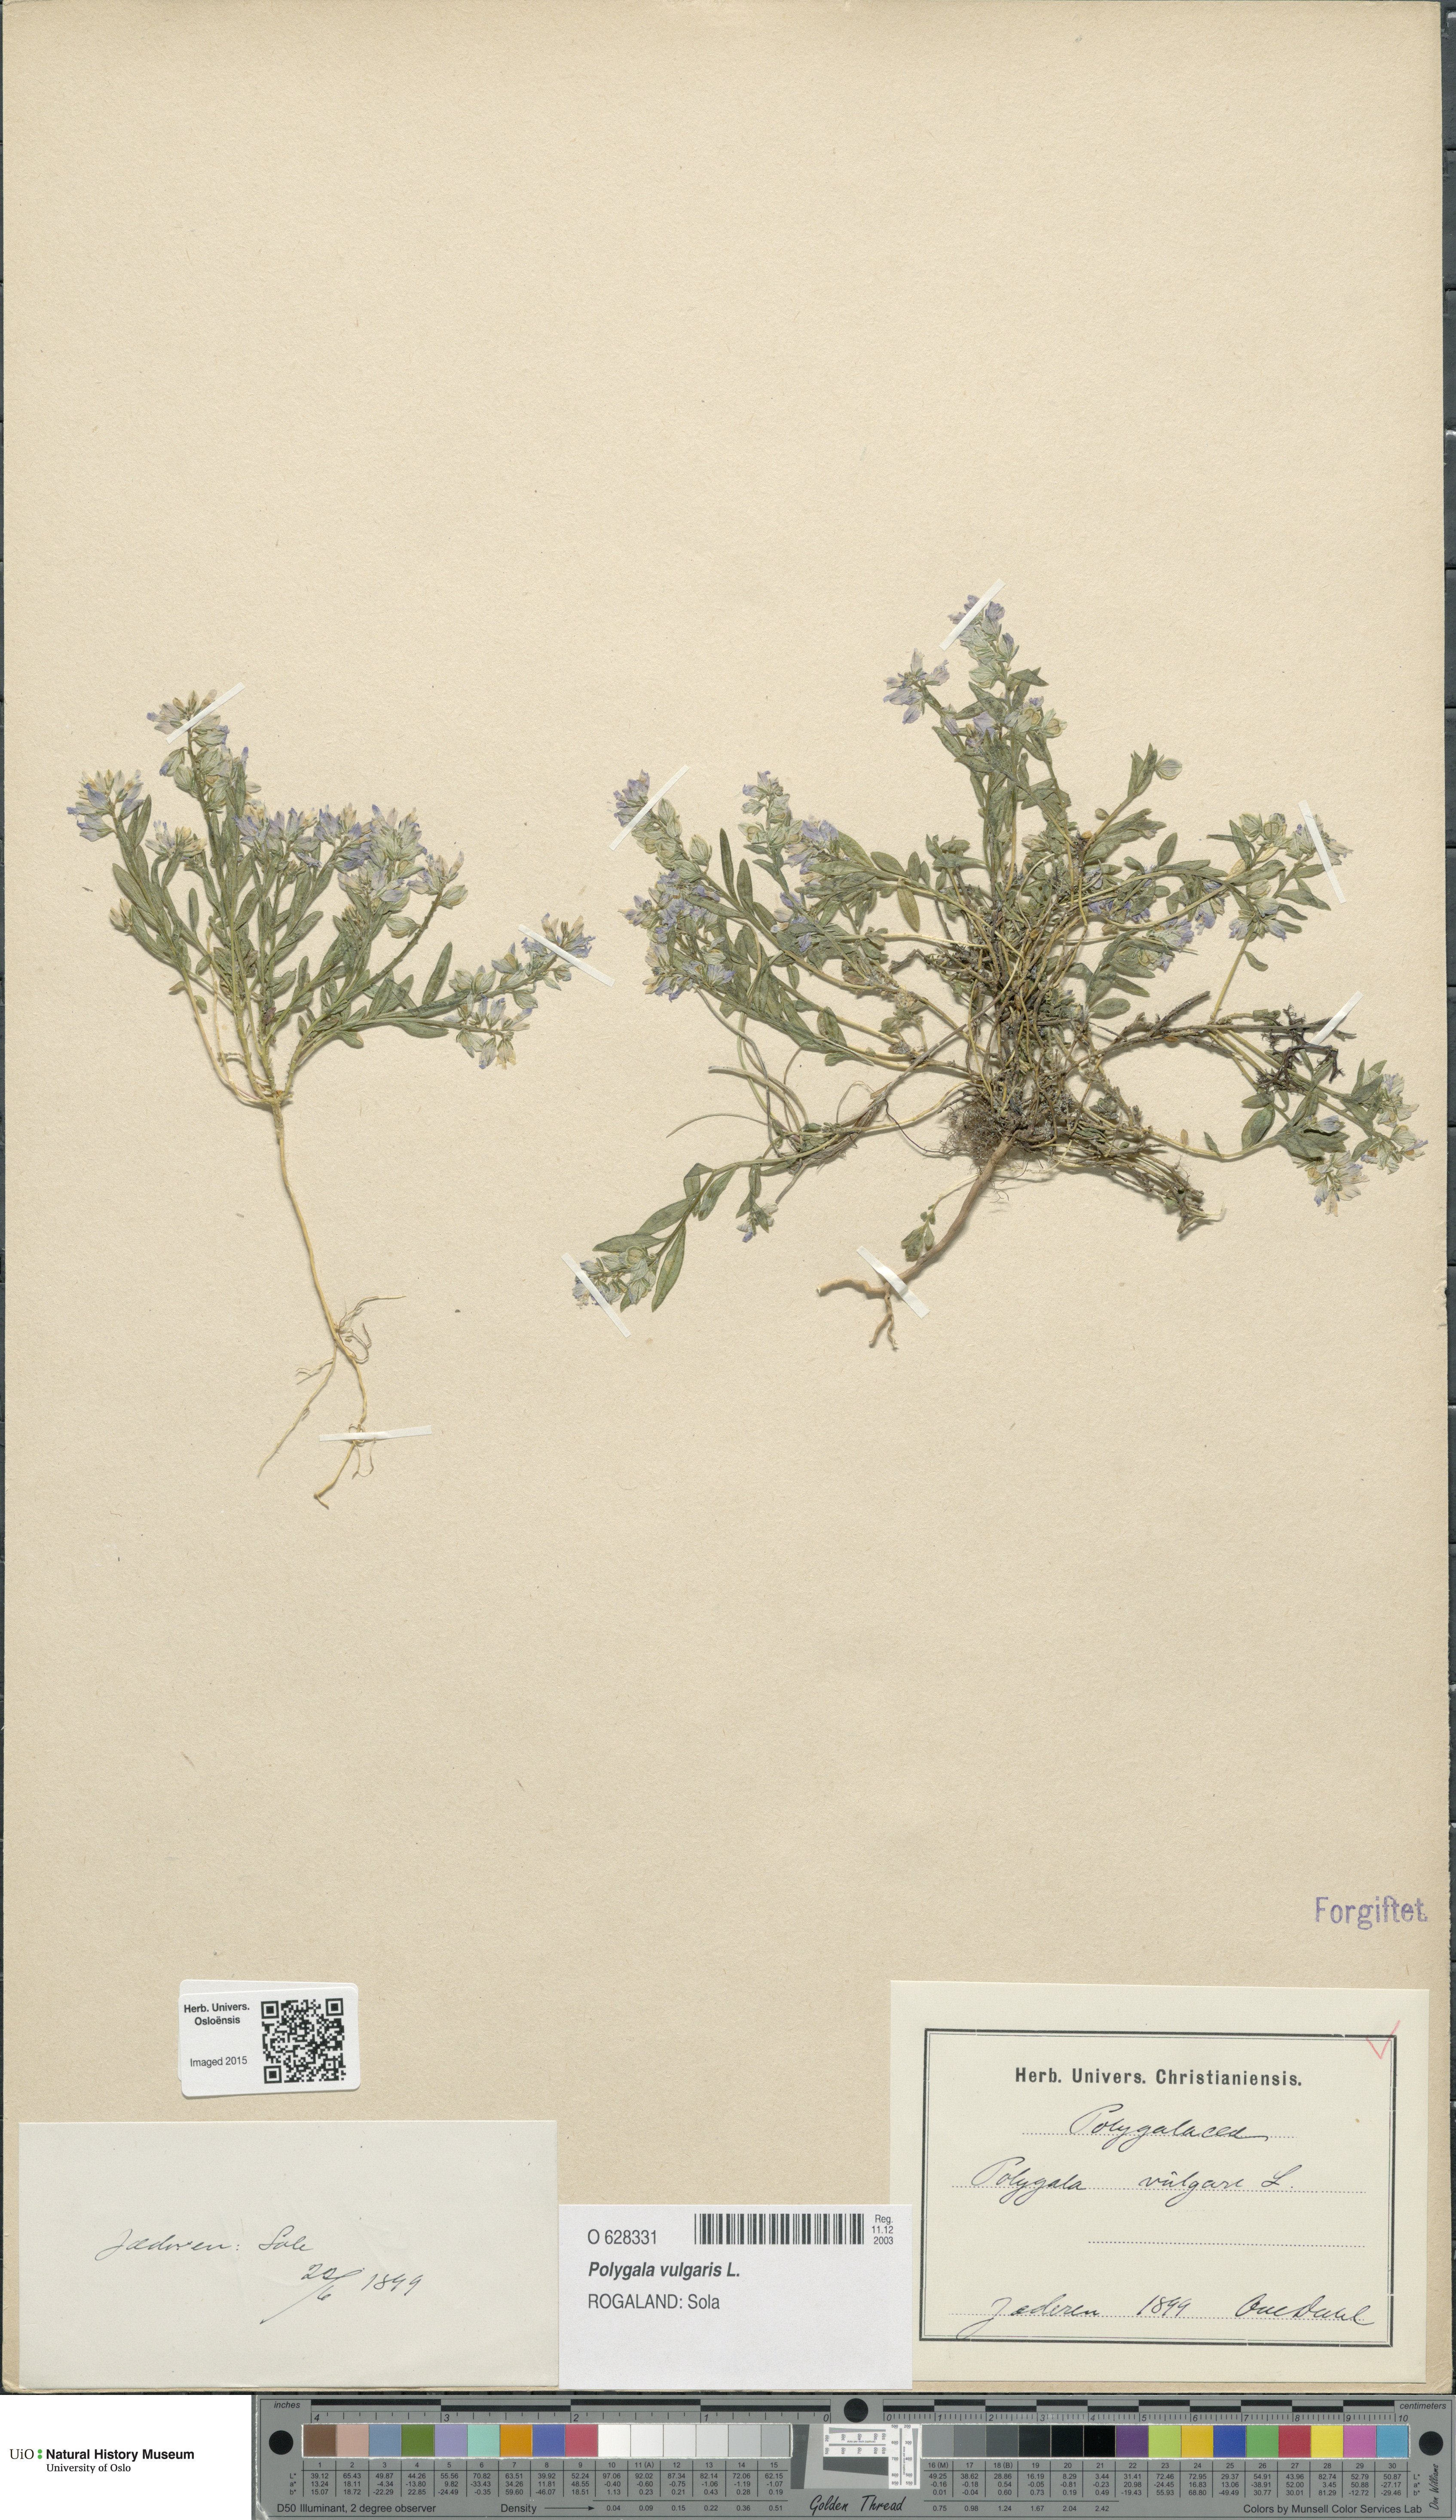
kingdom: Plantae
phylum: Tracheophyta
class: Magnoliopsida
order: Fabales
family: Polygalaceae
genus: Polygala
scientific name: Polygala vulgaris
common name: Common milkwort
